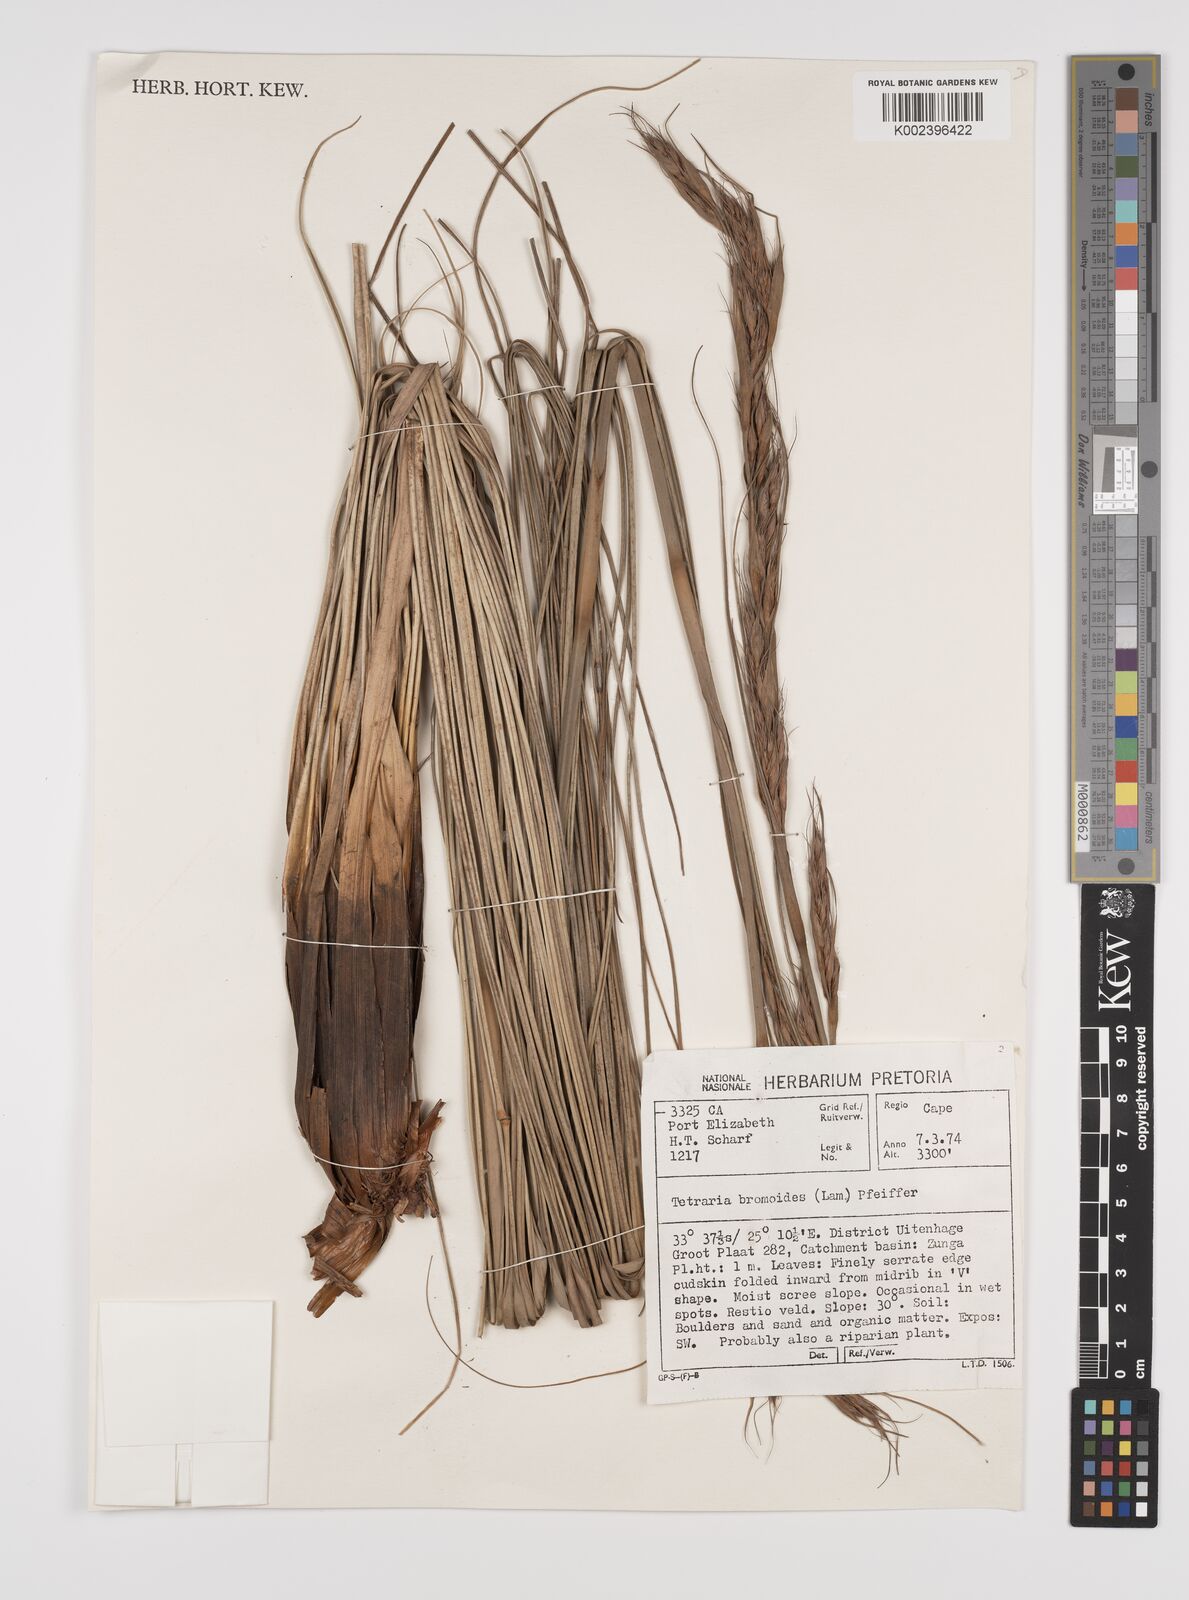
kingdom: Plantae
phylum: Tracheophyta
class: Liliopsida
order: Poales
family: Cyperaceae
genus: Tetraria
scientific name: Tetraria
